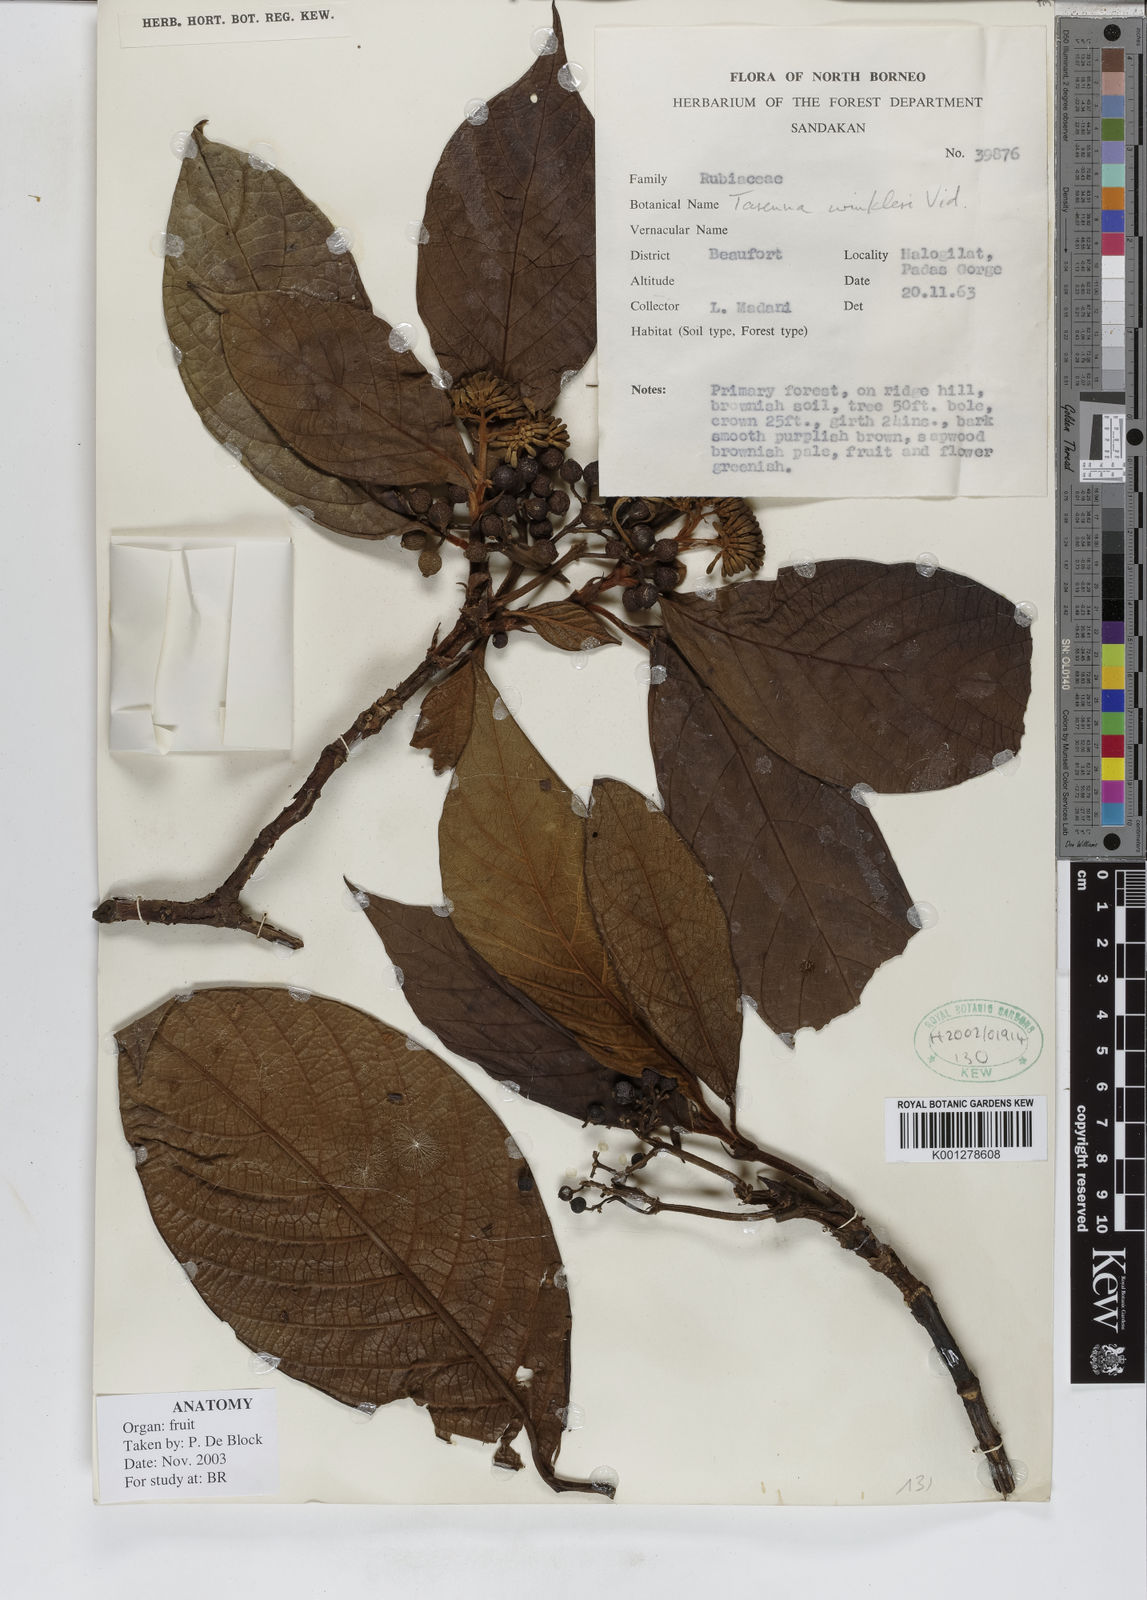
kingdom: Plantae
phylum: Tracheophyta
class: Magnoliopsida
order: Gentianales
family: Rubiaceae
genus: Tarenna
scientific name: Tarenna winkleri
